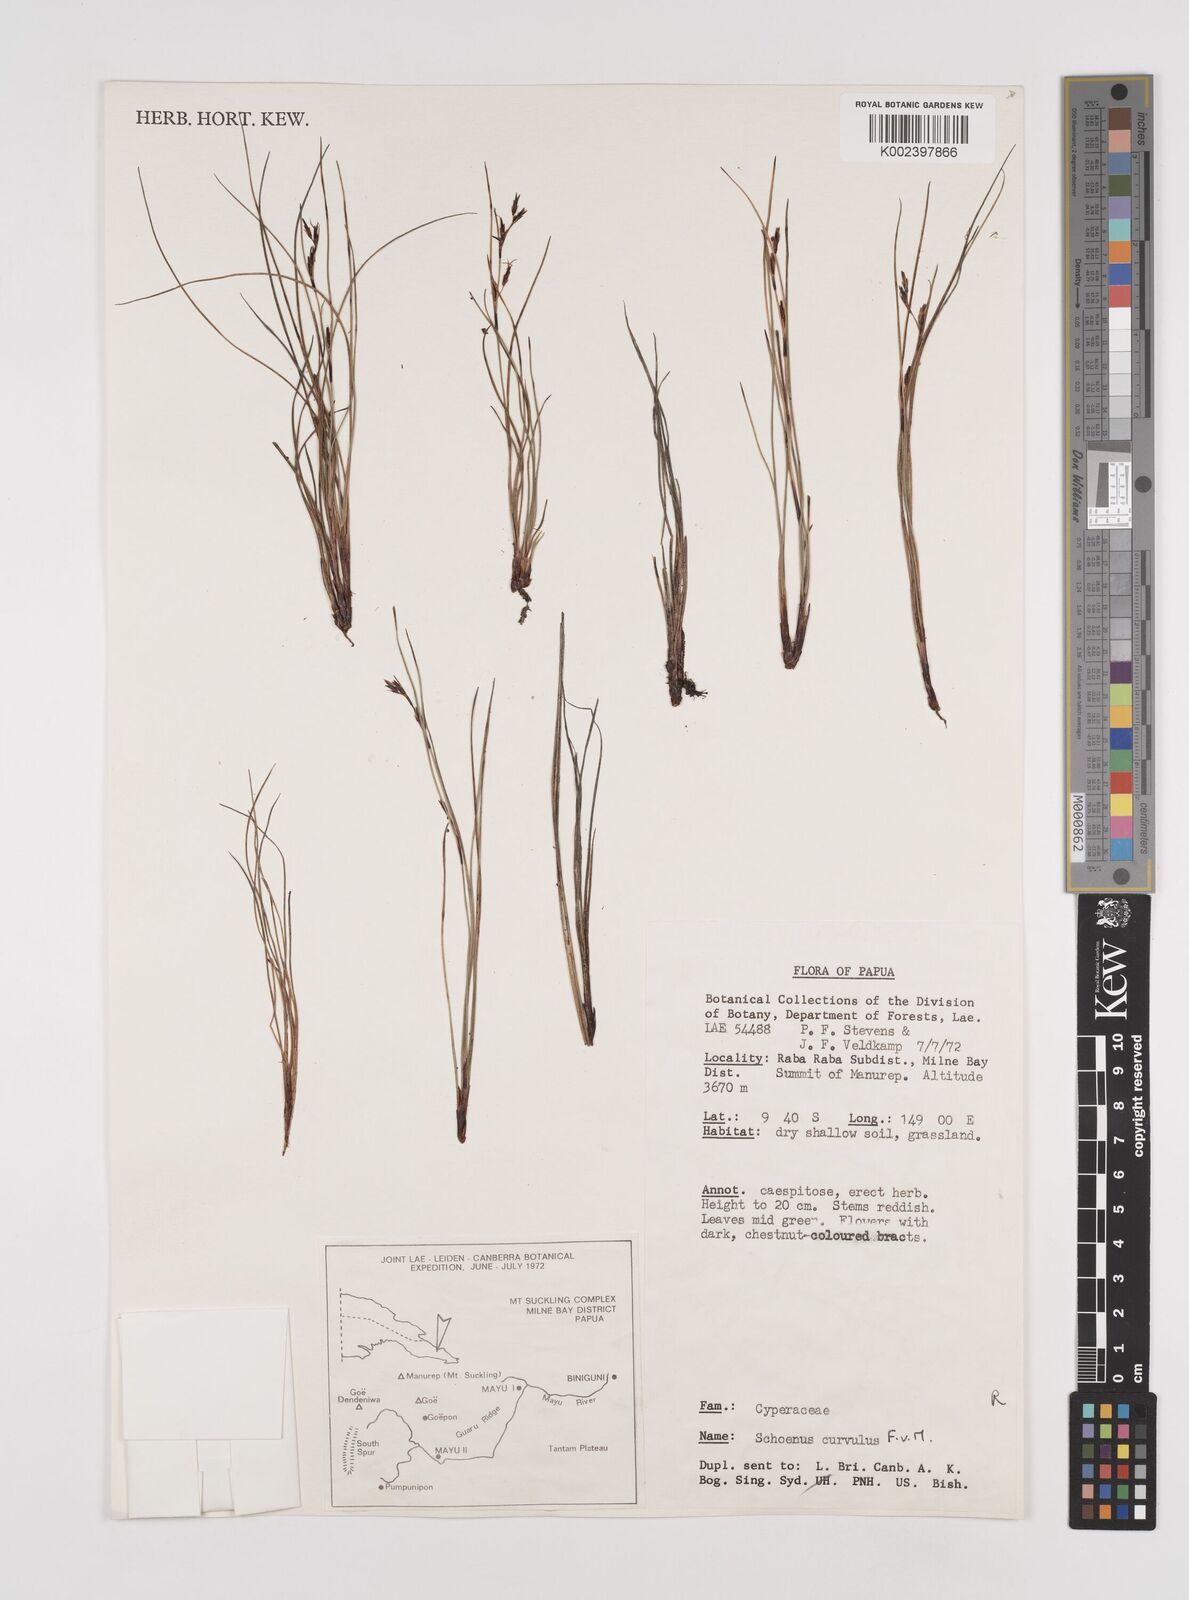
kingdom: Plantae
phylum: Tracheophyta
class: Liliopsida
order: Poales
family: Cyperaceae
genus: Schoenus
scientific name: Schoenus curvulus
